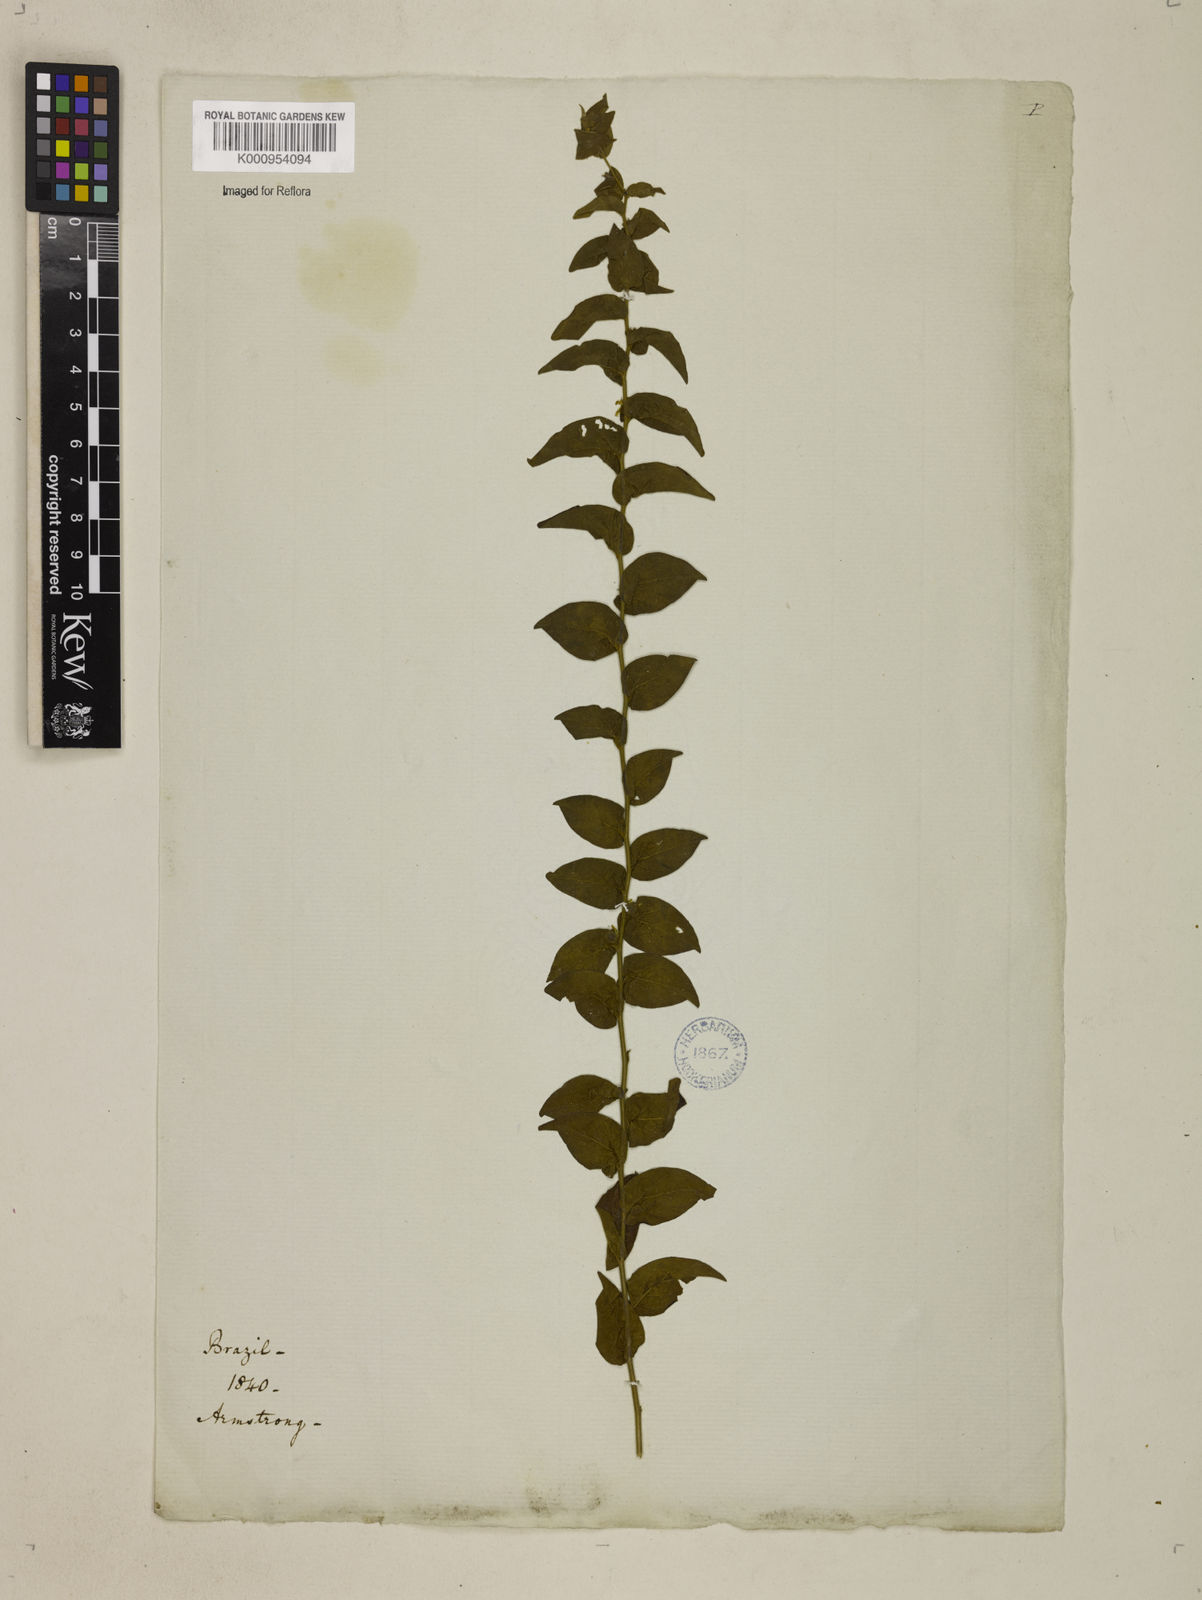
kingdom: Plantae
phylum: Tracheophyta
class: Magnoliopsida
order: Solanales
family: Convolvulaceae
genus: Evolvulus
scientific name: Evolvulus latifolius
